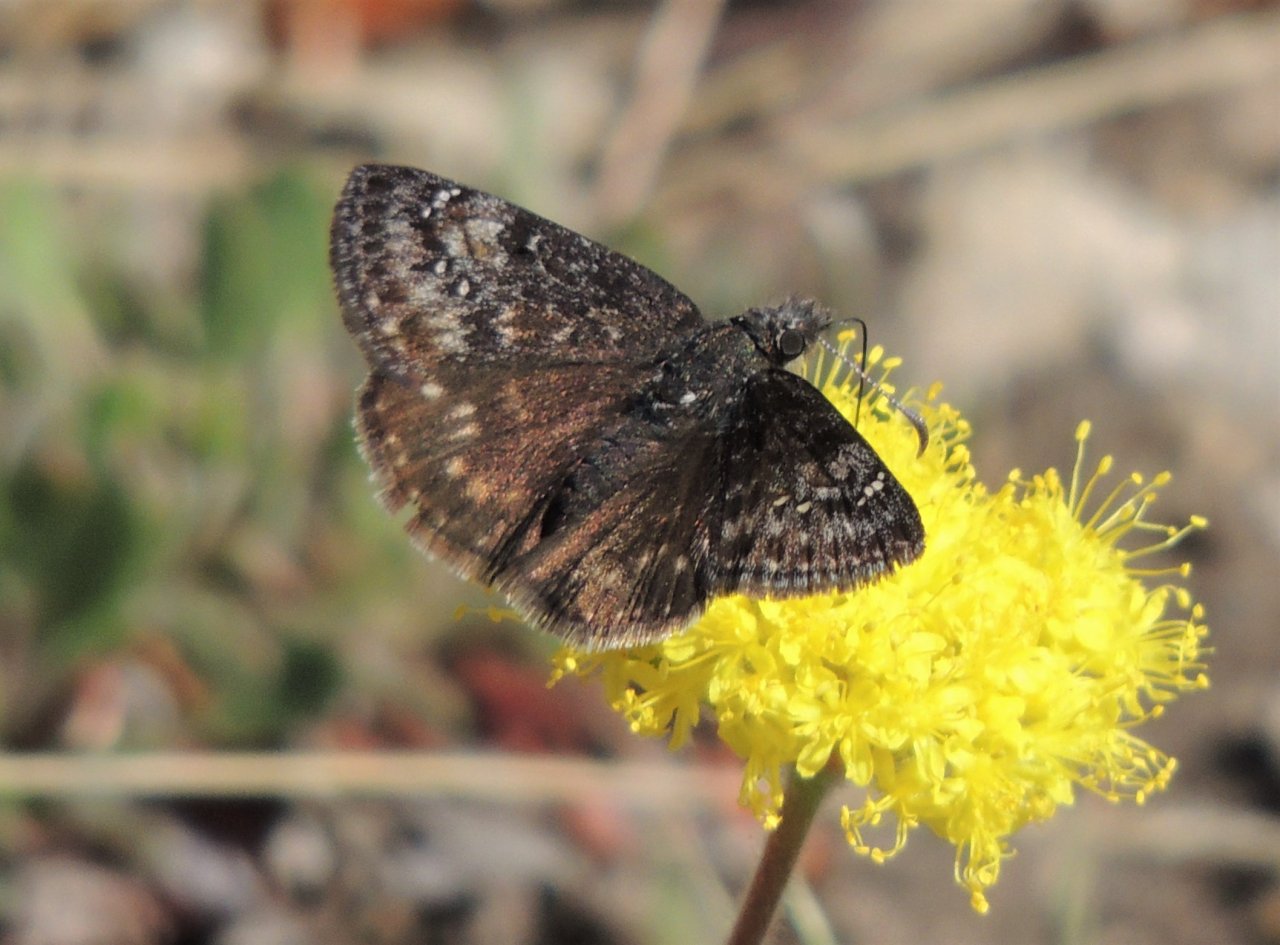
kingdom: Animalia
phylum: Arthropoda
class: Insecta
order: Lepidoptera
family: Hesperiidae
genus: Gesta
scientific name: Gesta
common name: Persius Duskywing
